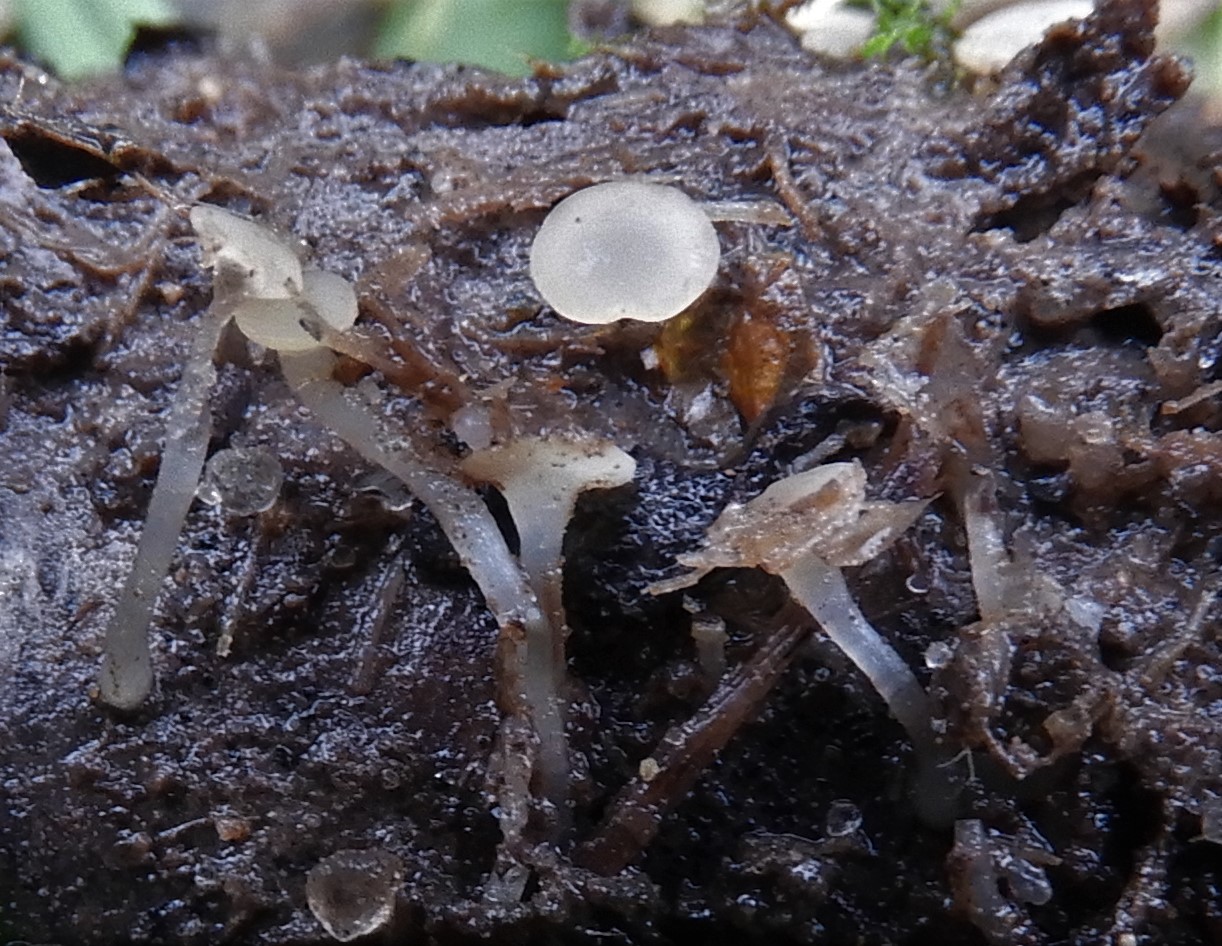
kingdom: Fungi
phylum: Ascomycota
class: Leotiomycetes
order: Helotiales
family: Tricladiaceae
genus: Cudoniella
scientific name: Cudoniella
